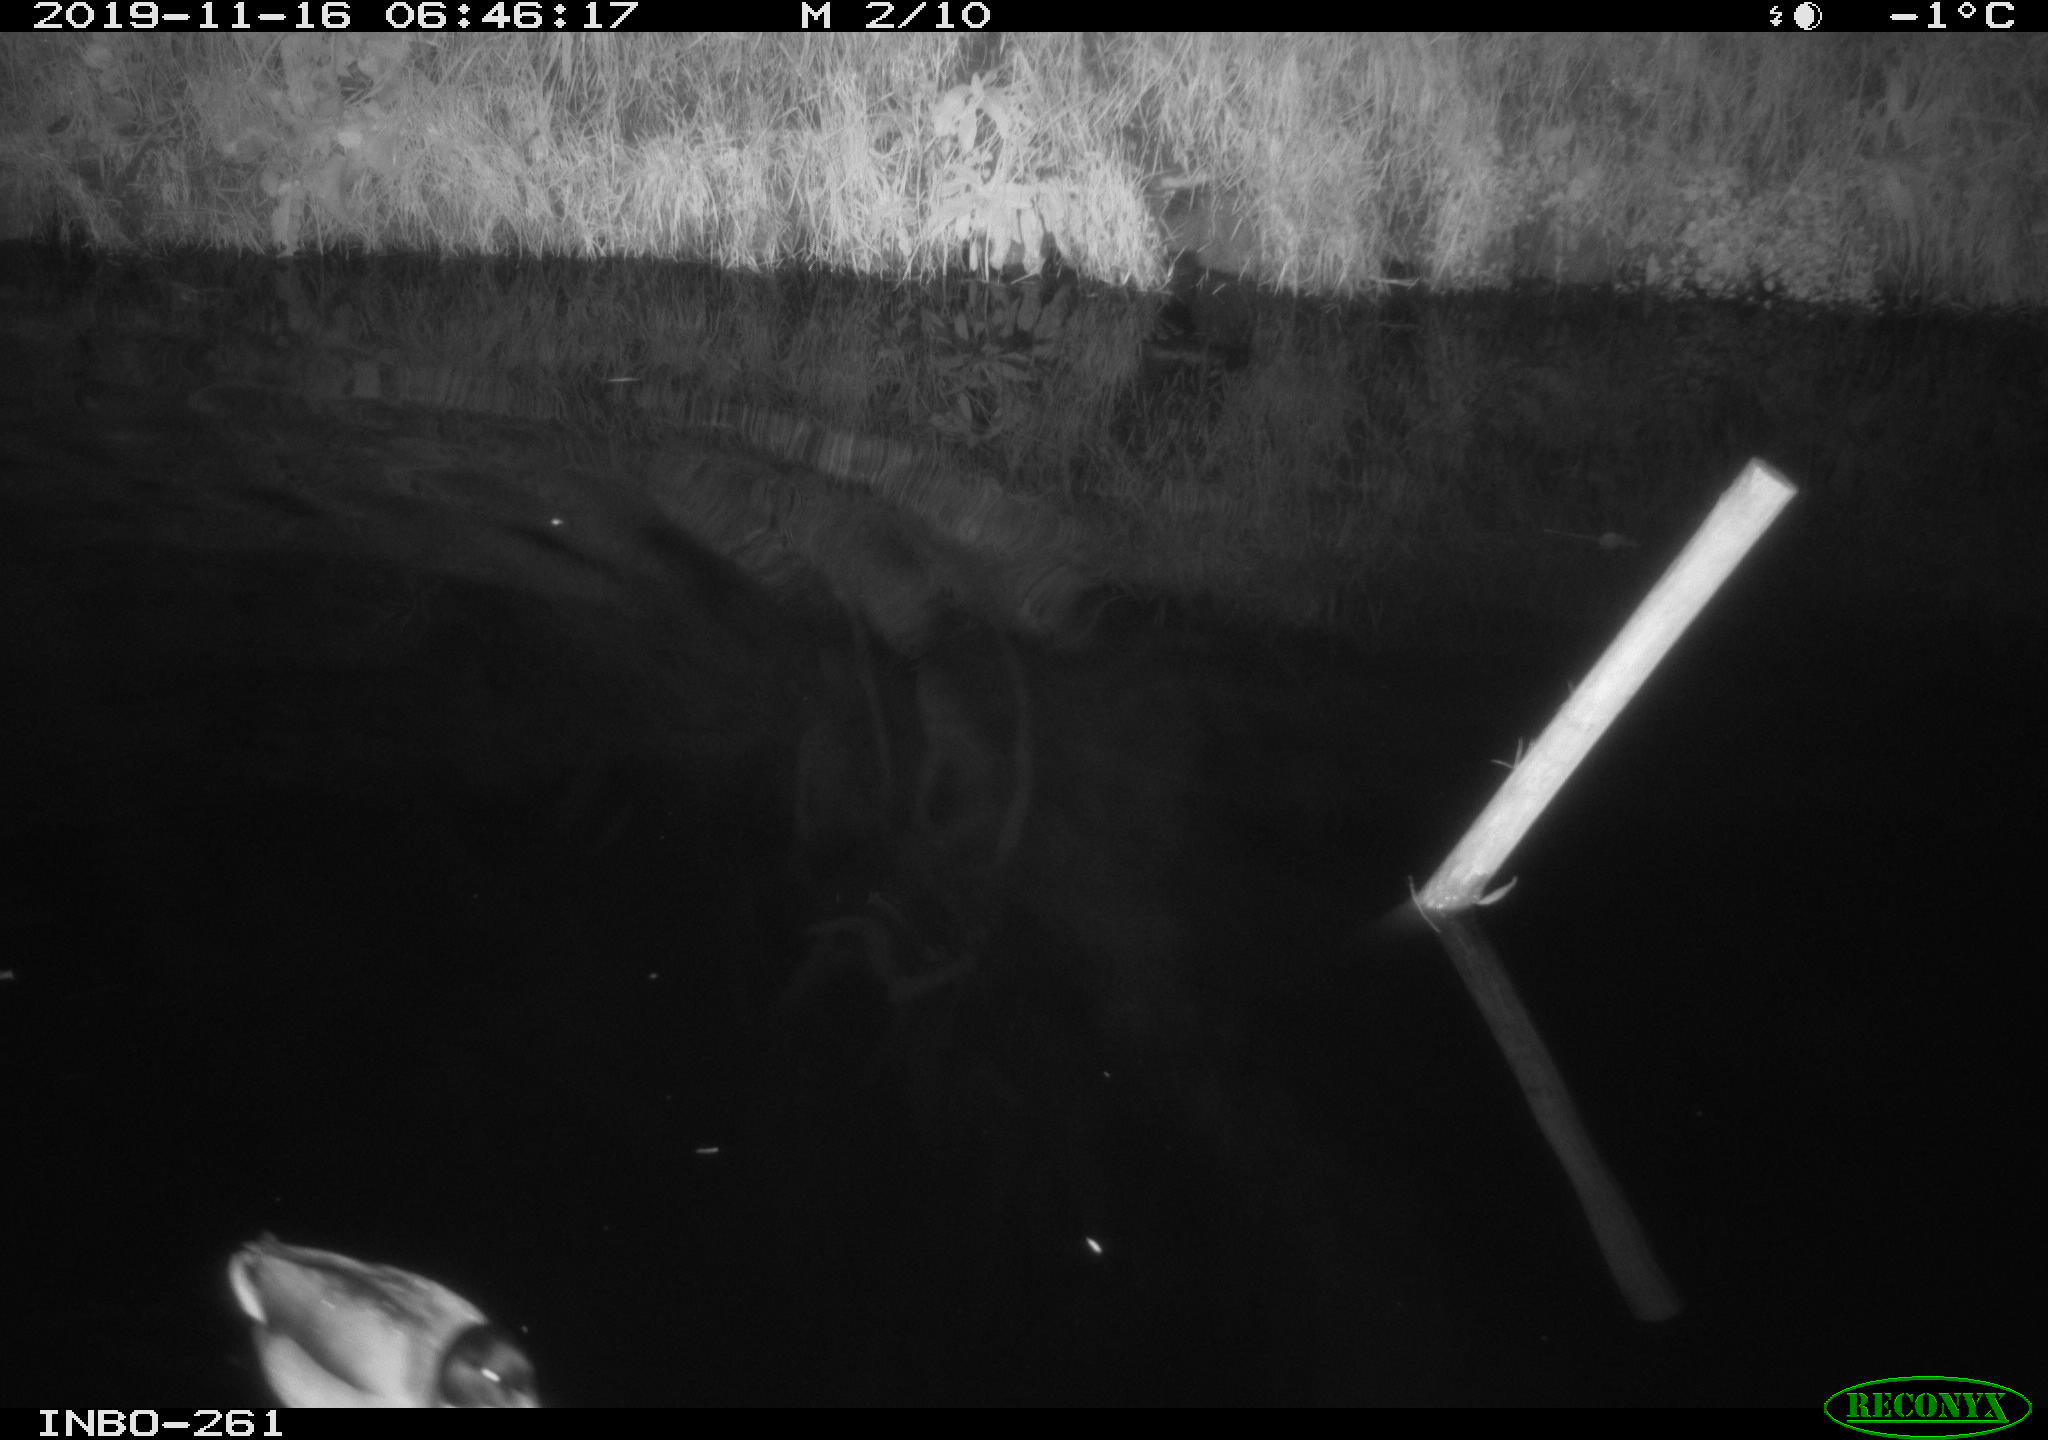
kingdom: Animalia
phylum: Chordata
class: Aves
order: Anseriformes
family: Anatidae
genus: Anas
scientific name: Anas platyrhynchos
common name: Mallard
